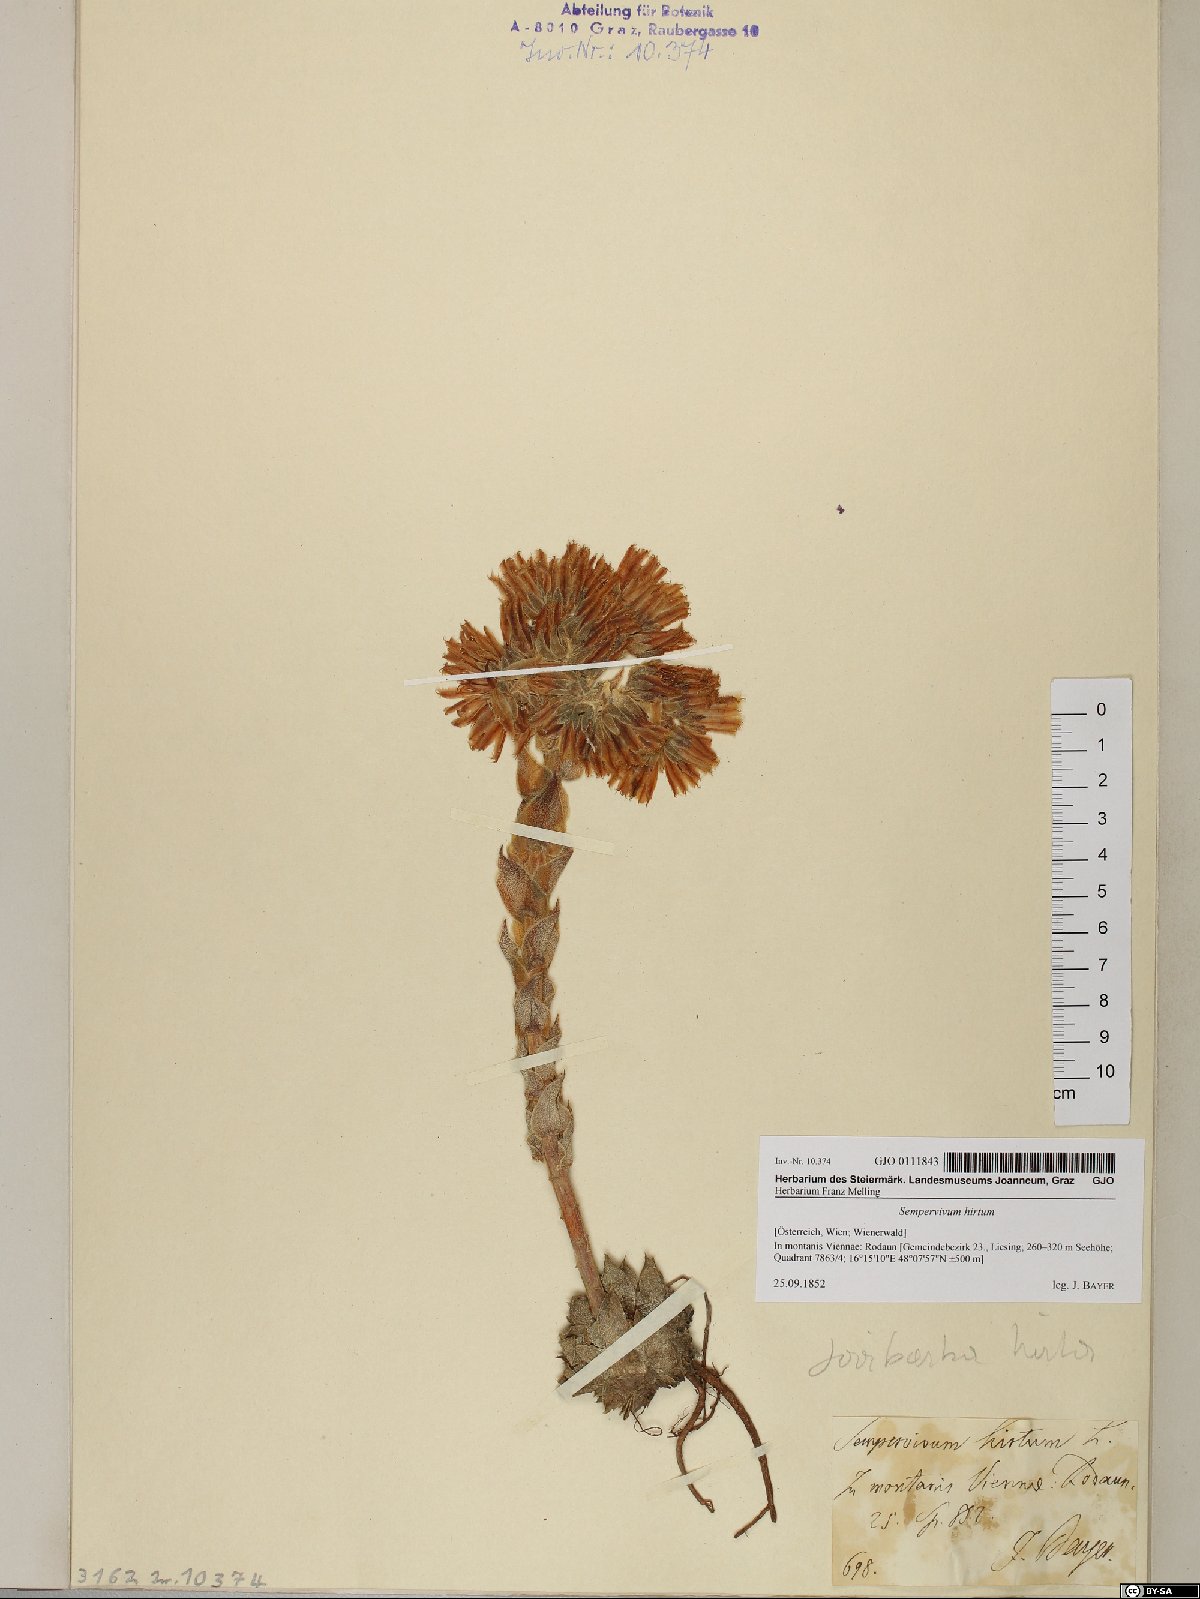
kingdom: Plantae
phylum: Tracheophyta
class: Magnoliopsida
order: Saxifragales
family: Crassulaceae
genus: Sempervivum
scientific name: Sempervivum globiferum
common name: Rolling hen-and-chicks
